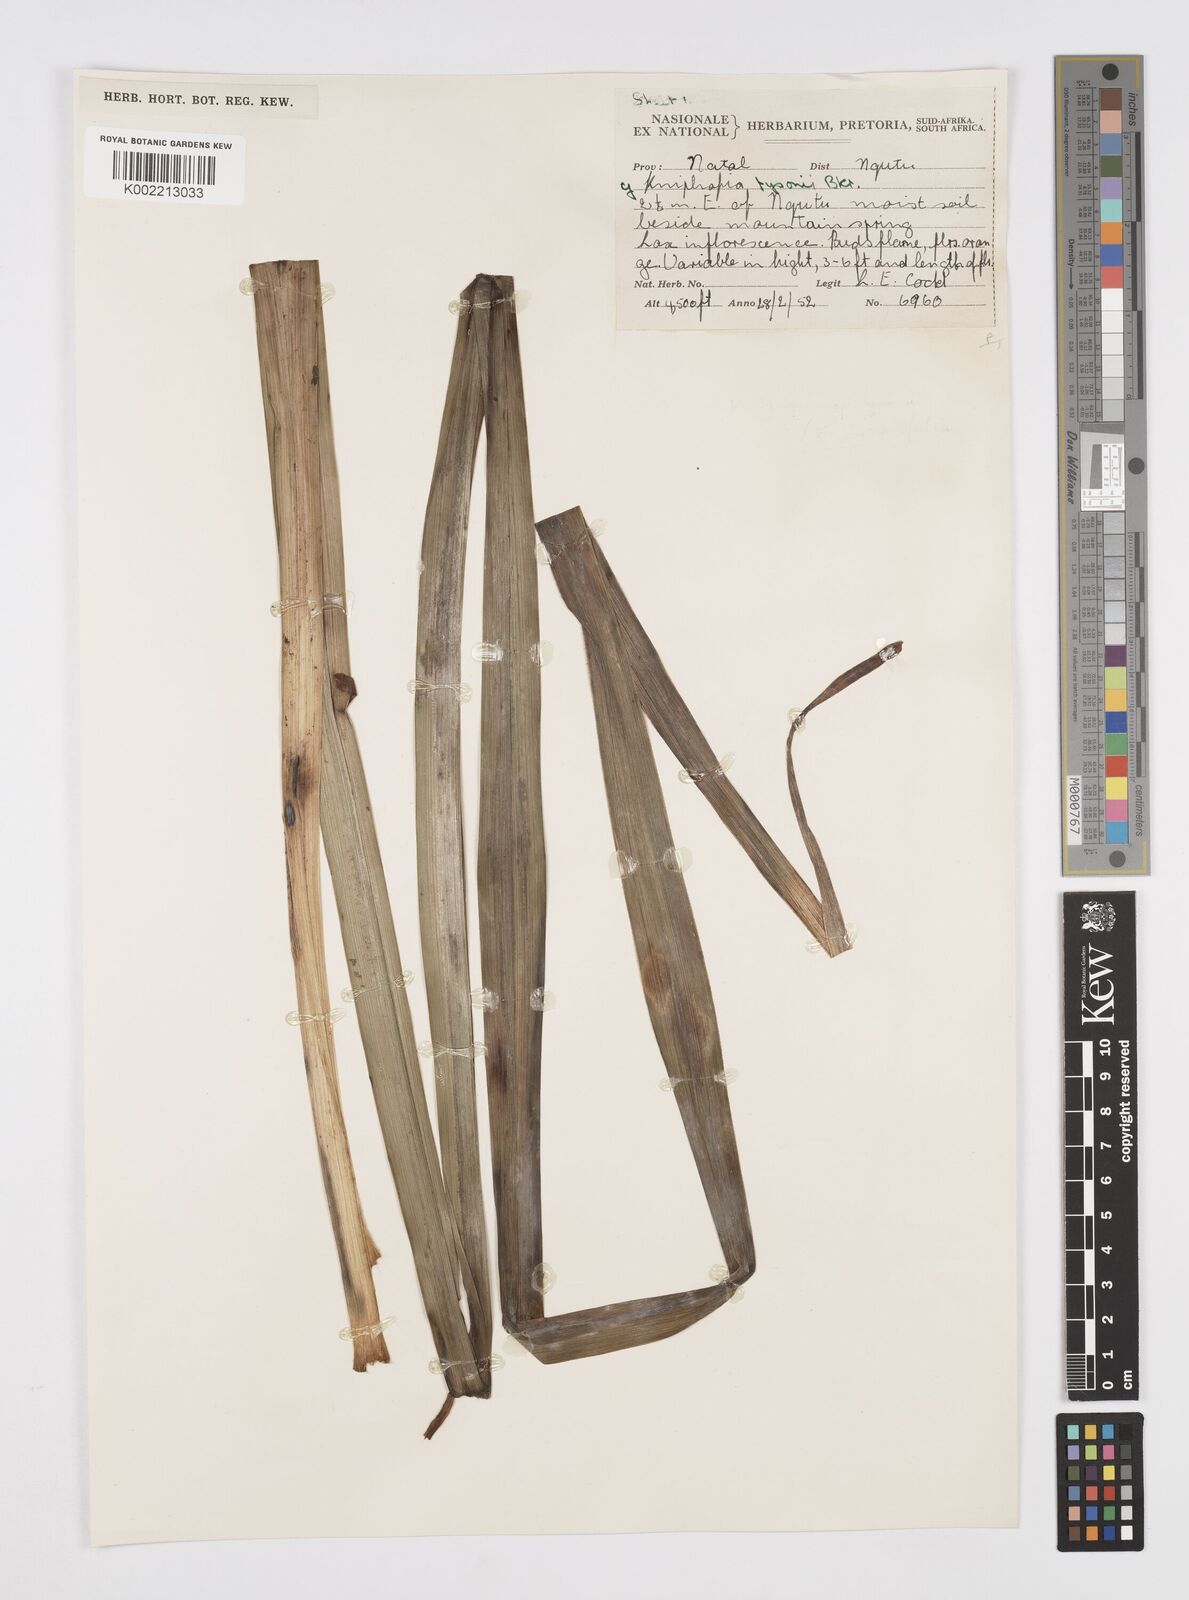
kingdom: Plantae
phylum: Tracheophyta
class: Liliopsida
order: Asparagales
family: Asphodelaceae
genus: Kniphofia
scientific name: Kniphofia tysonii
